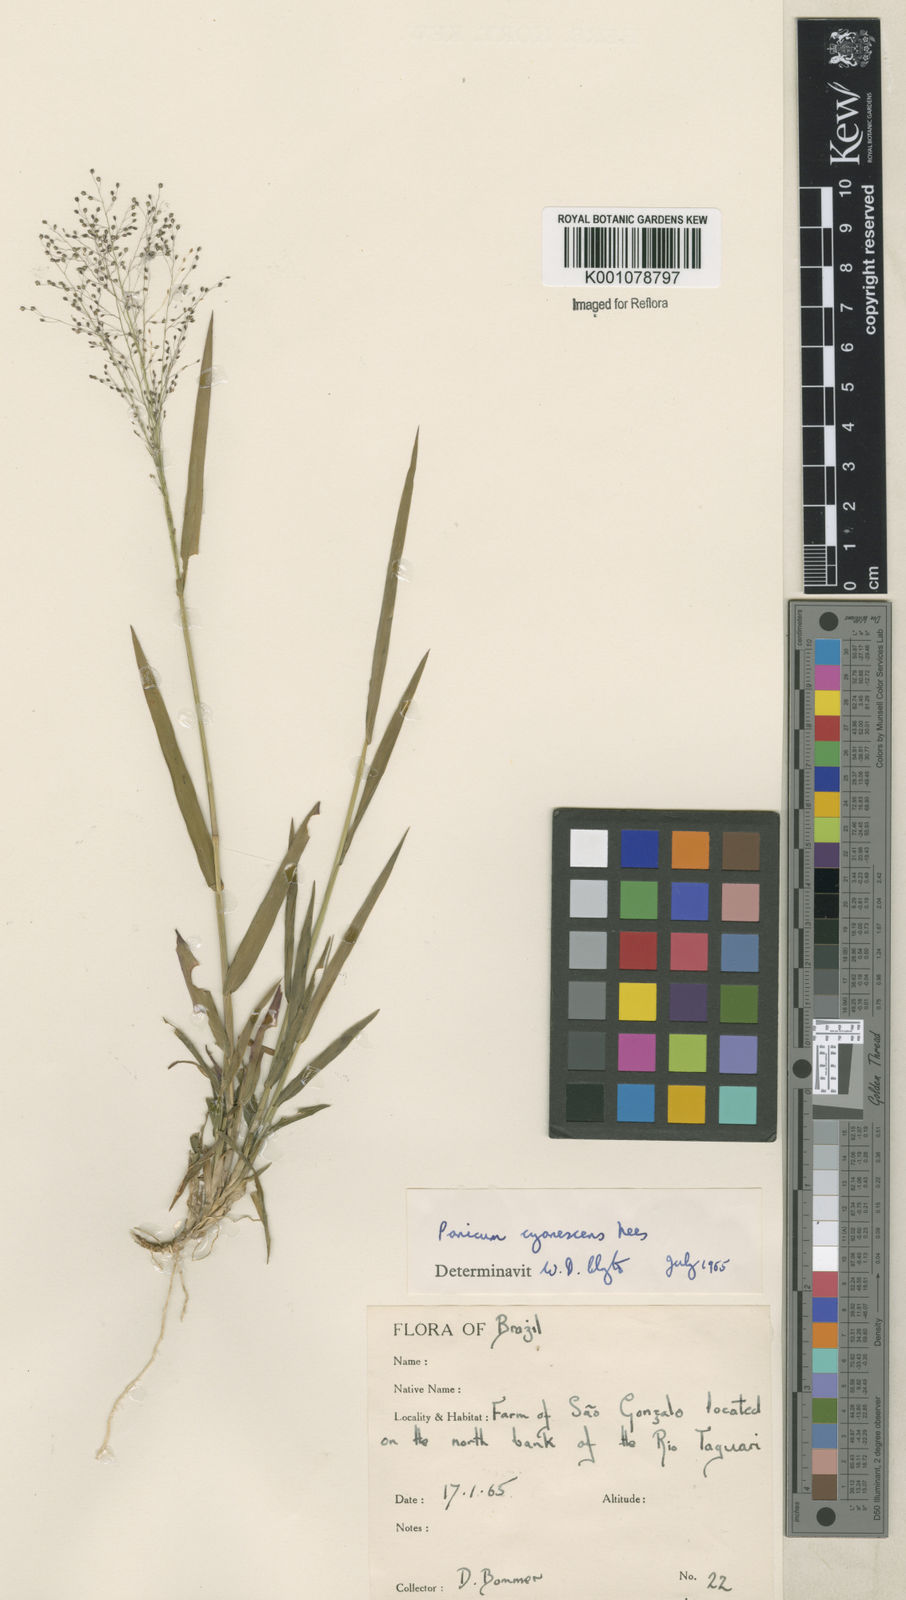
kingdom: Plantae
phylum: Tracheophyta
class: Liliopsida
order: Poales
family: Poaceae
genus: Trichanthecium
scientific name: Trichanthecium pseudisachne
